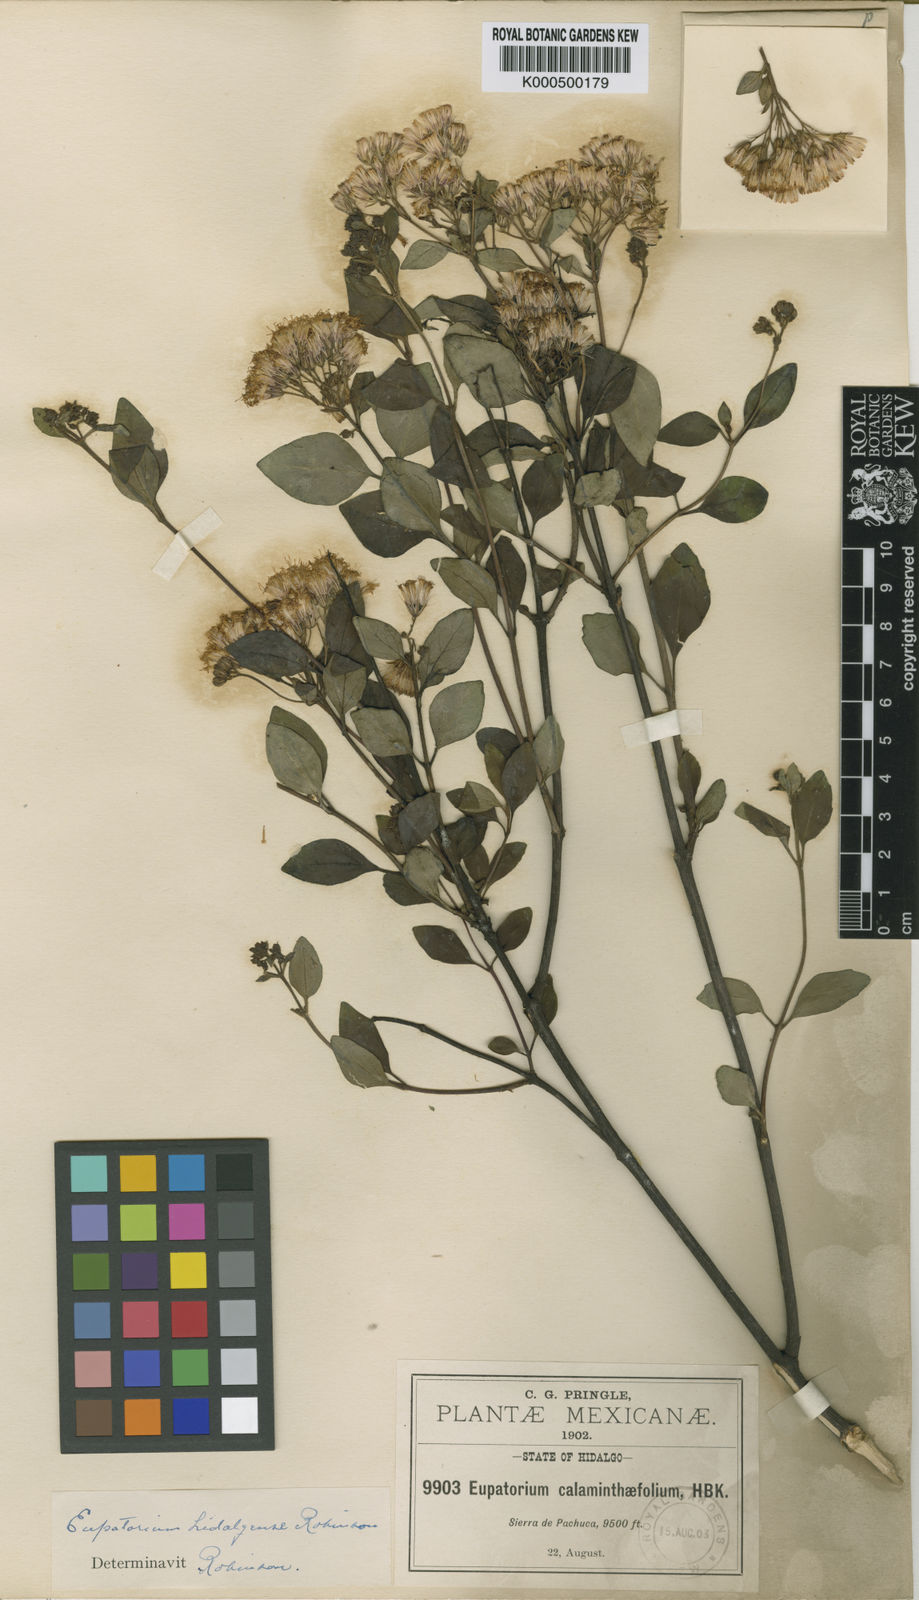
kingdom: Plantae
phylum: Tracheophyta
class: Magnoliopsida
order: Asterales
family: Asteraceae
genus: Ageratina
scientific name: Ageratina hidalgensis
